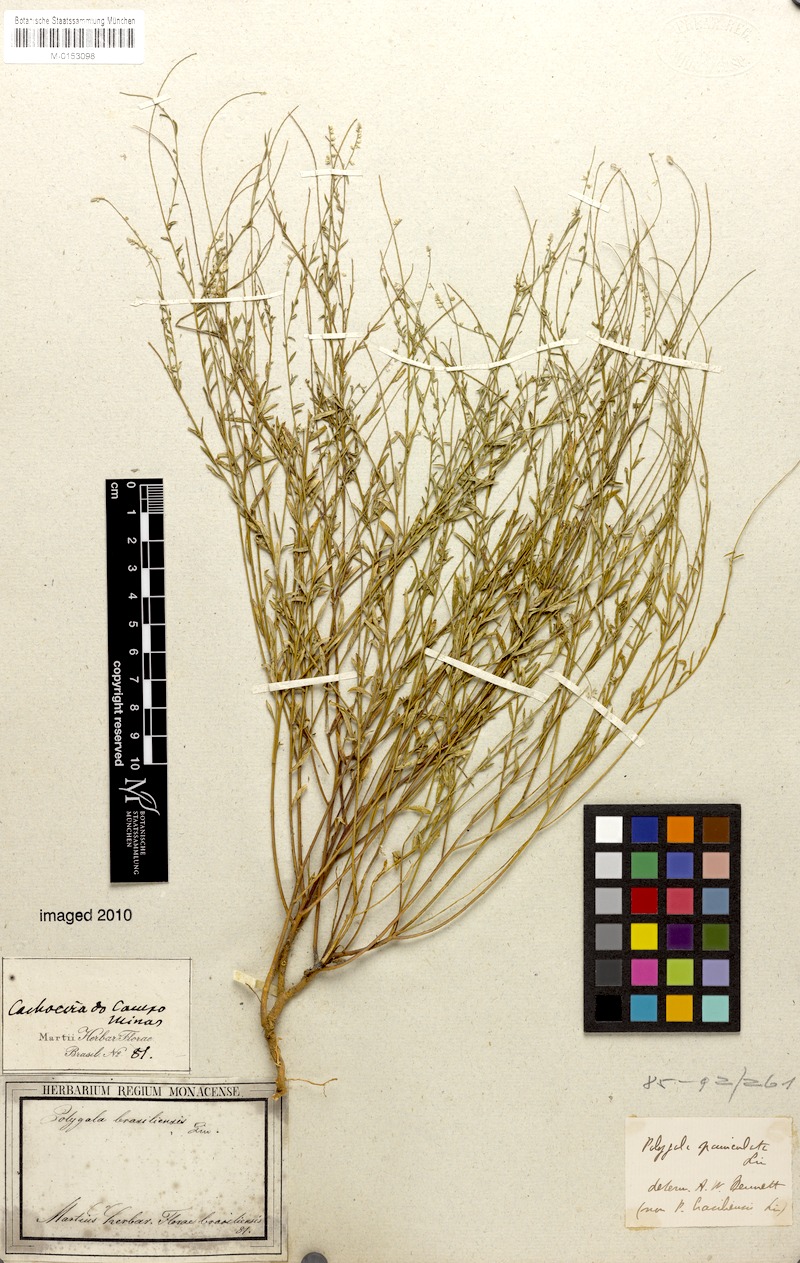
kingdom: Plantae
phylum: Tracheophyta
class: Magnoliopsida
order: Fabales
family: Polygalaceae
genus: Polygala
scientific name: Polygala brasiliensis
